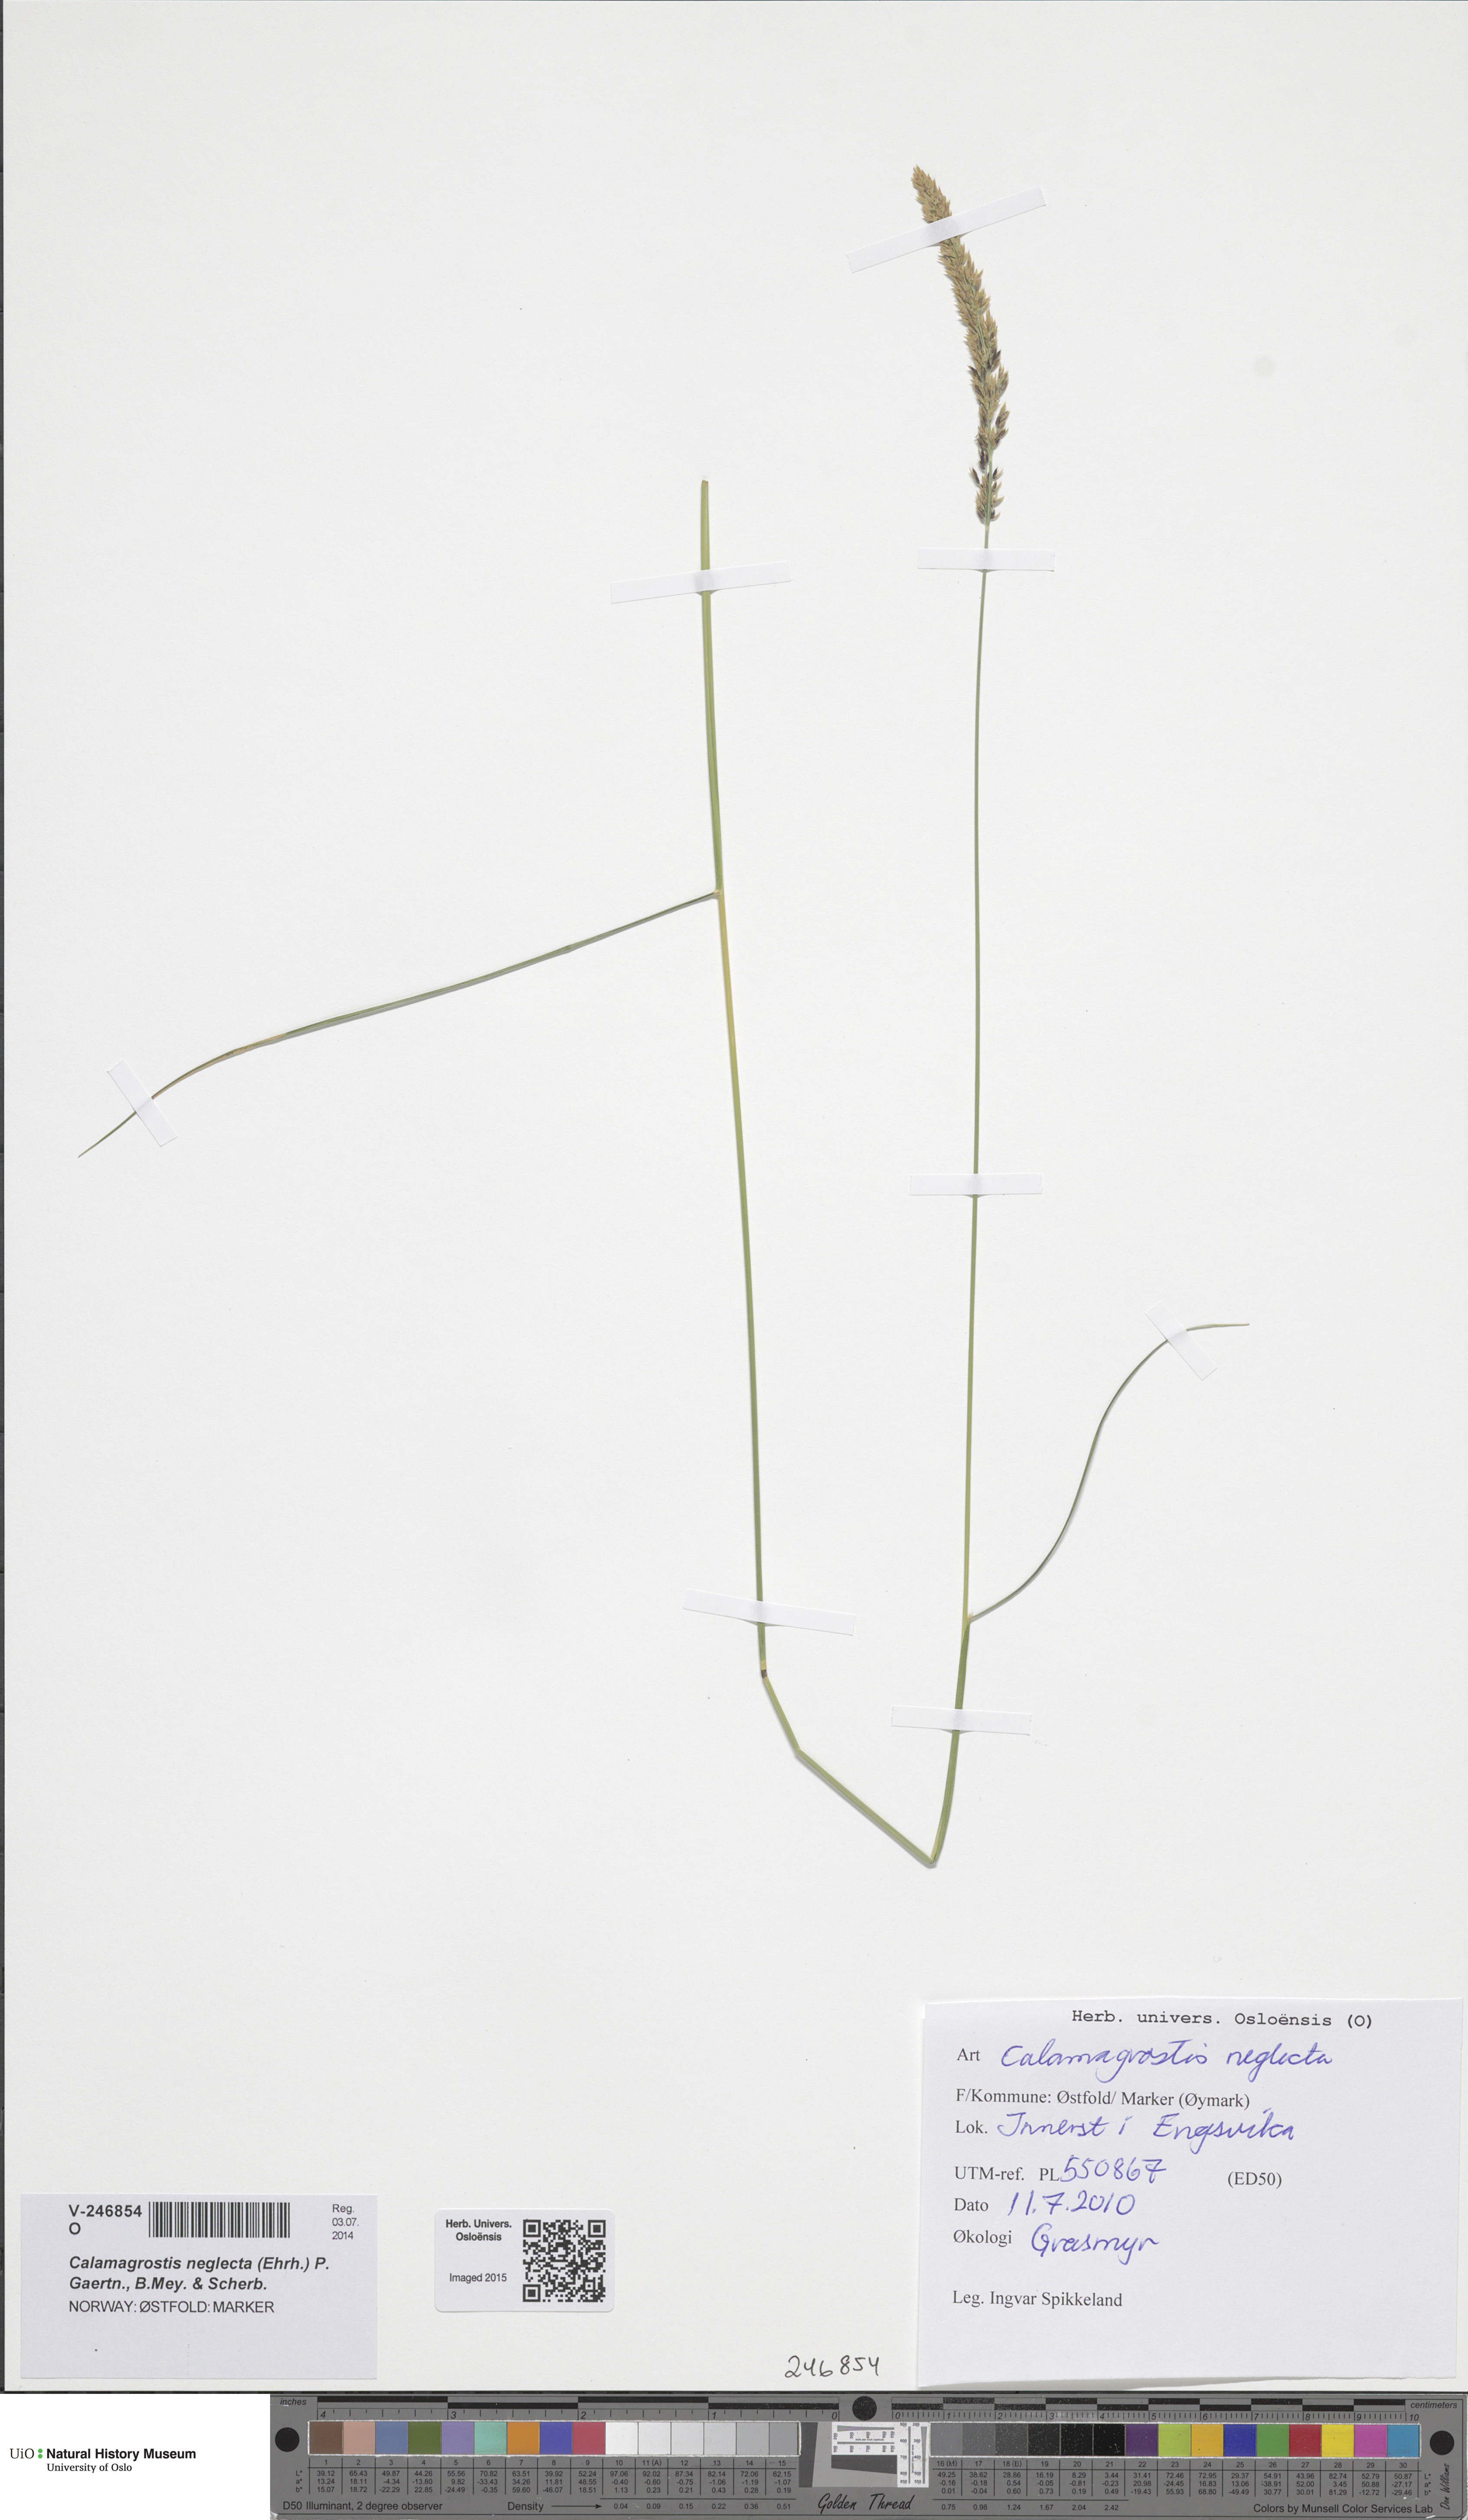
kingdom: Plantae
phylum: Tracheophyta
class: Liliopsida
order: Poales
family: Poaceae
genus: Achnatherum
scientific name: Achnatherum calamagrostis
